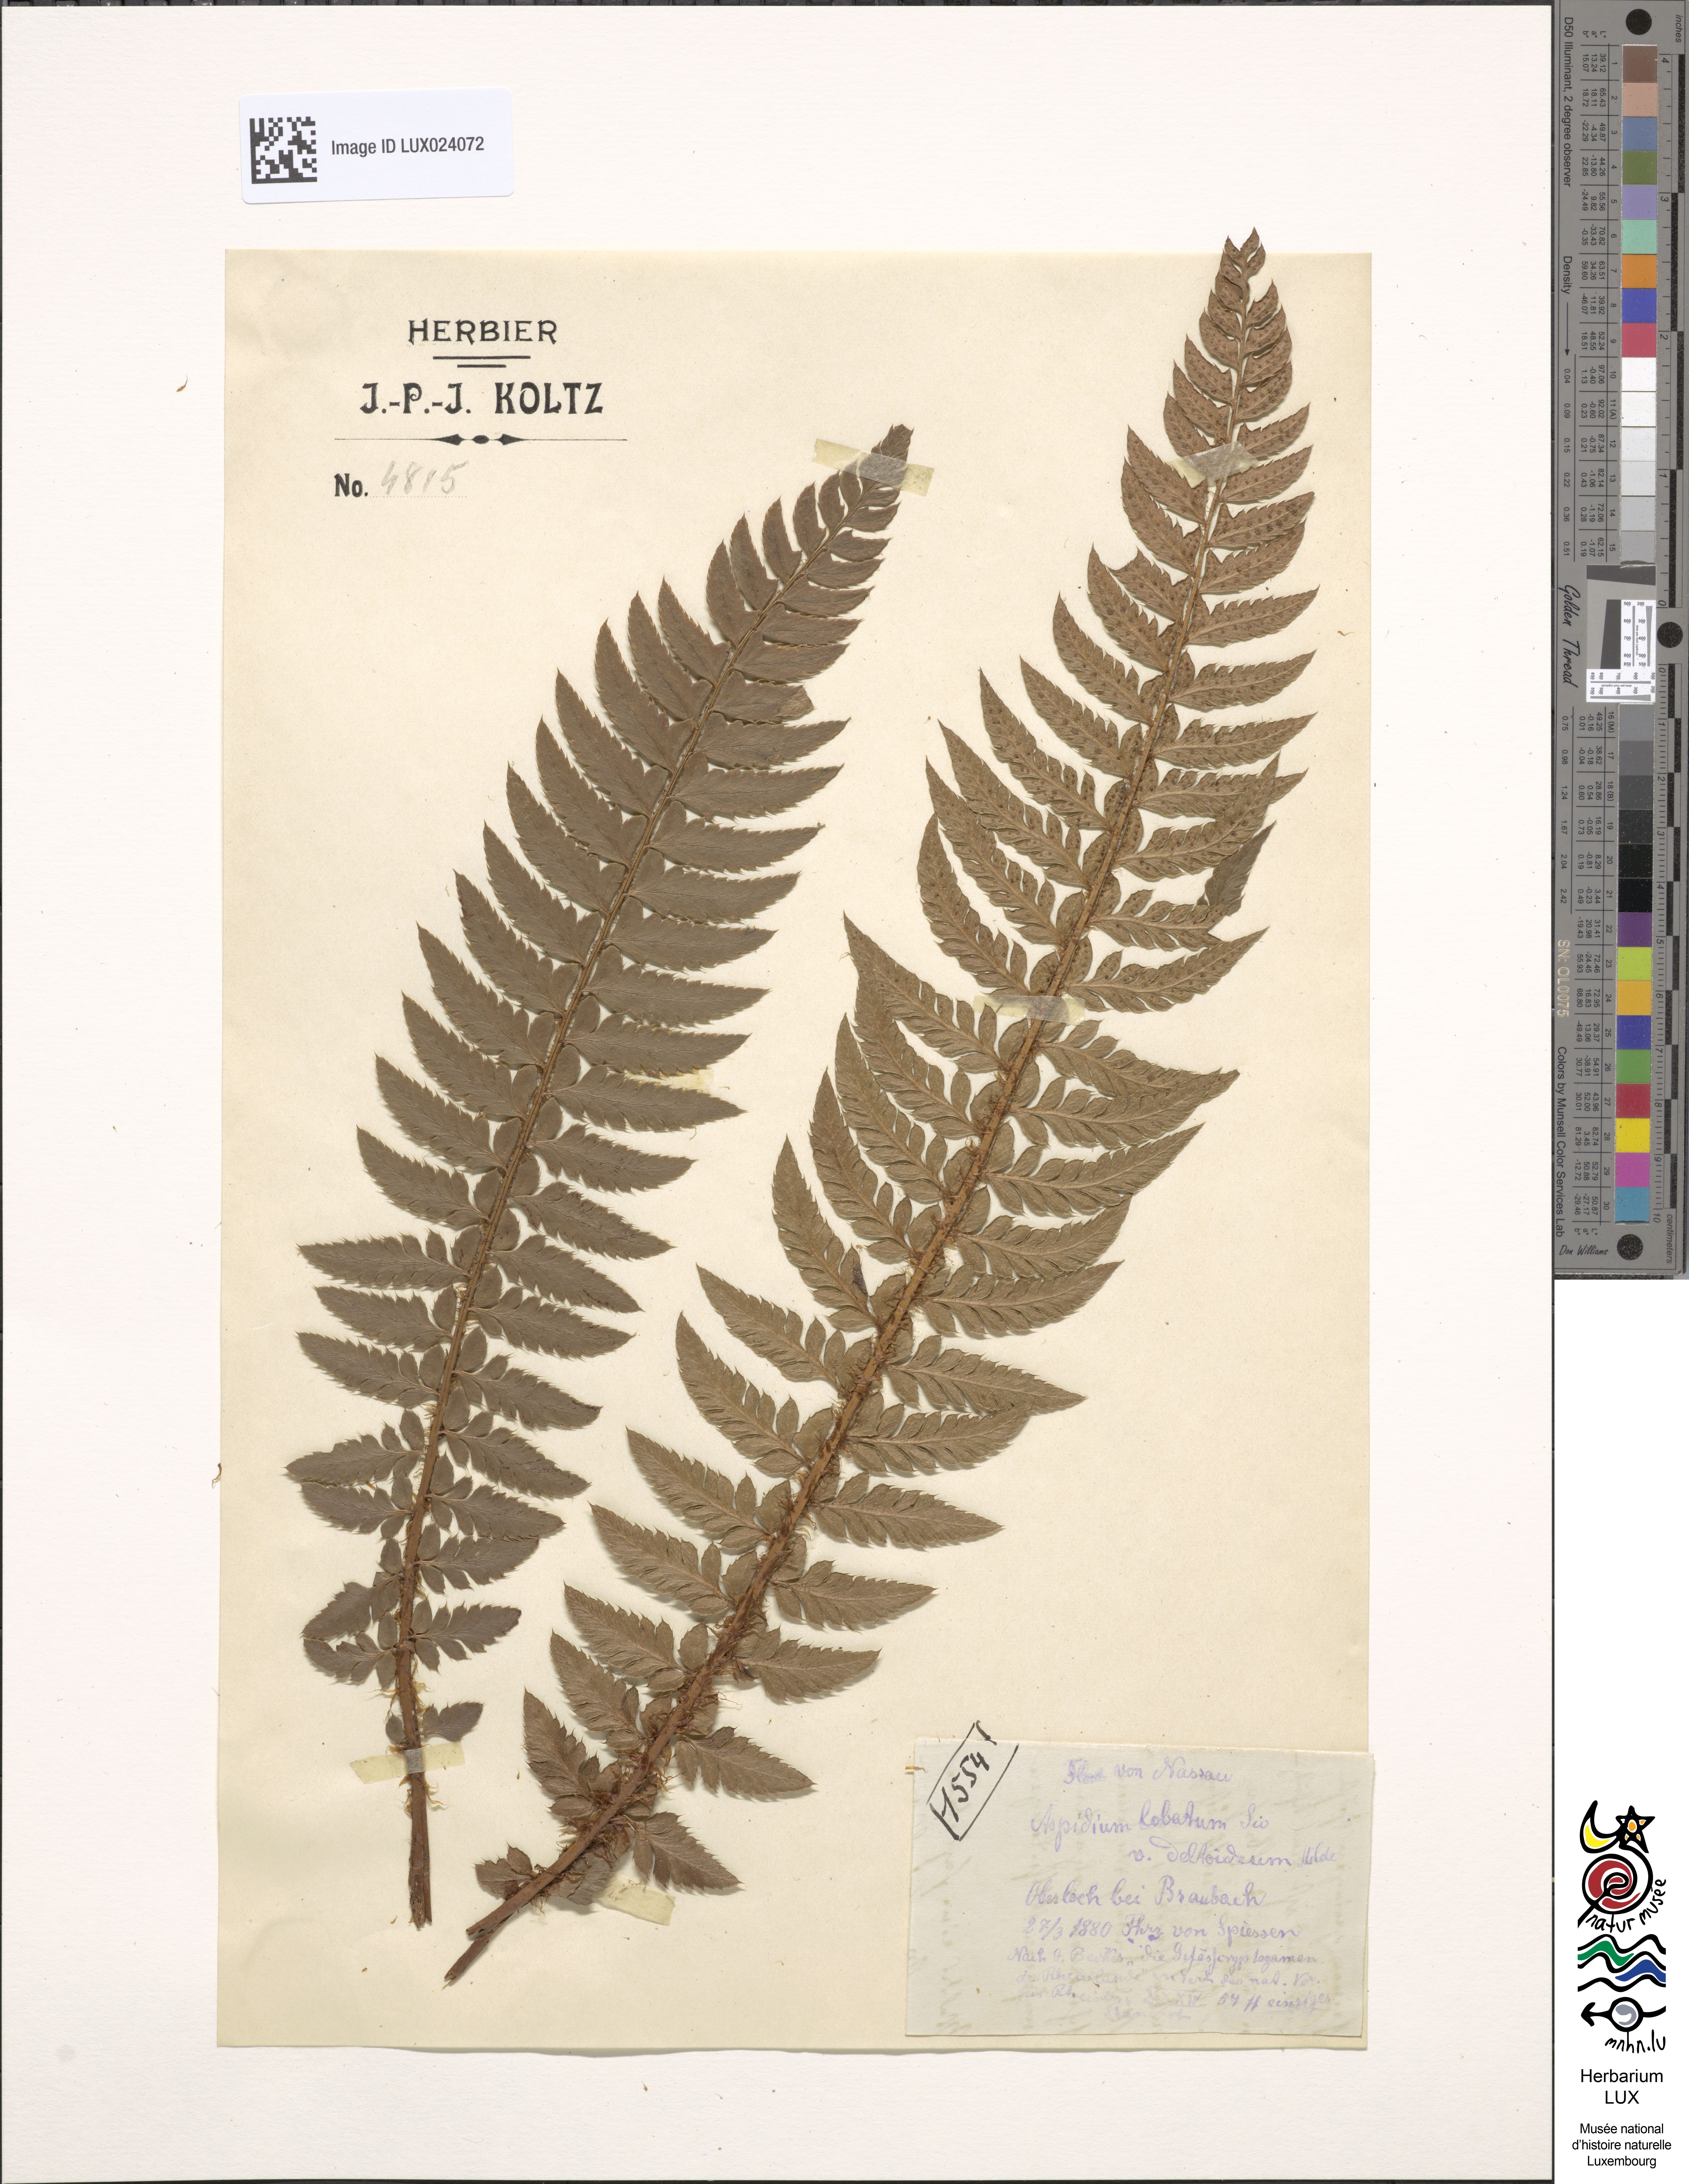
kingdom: Plantae
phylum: Tracheophyta
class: Polypodiopsida
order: Polypodiales
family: Dryopteridaceae
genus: Polystichum
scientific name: Polystichum aculeatum
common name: Hard shield-fern
